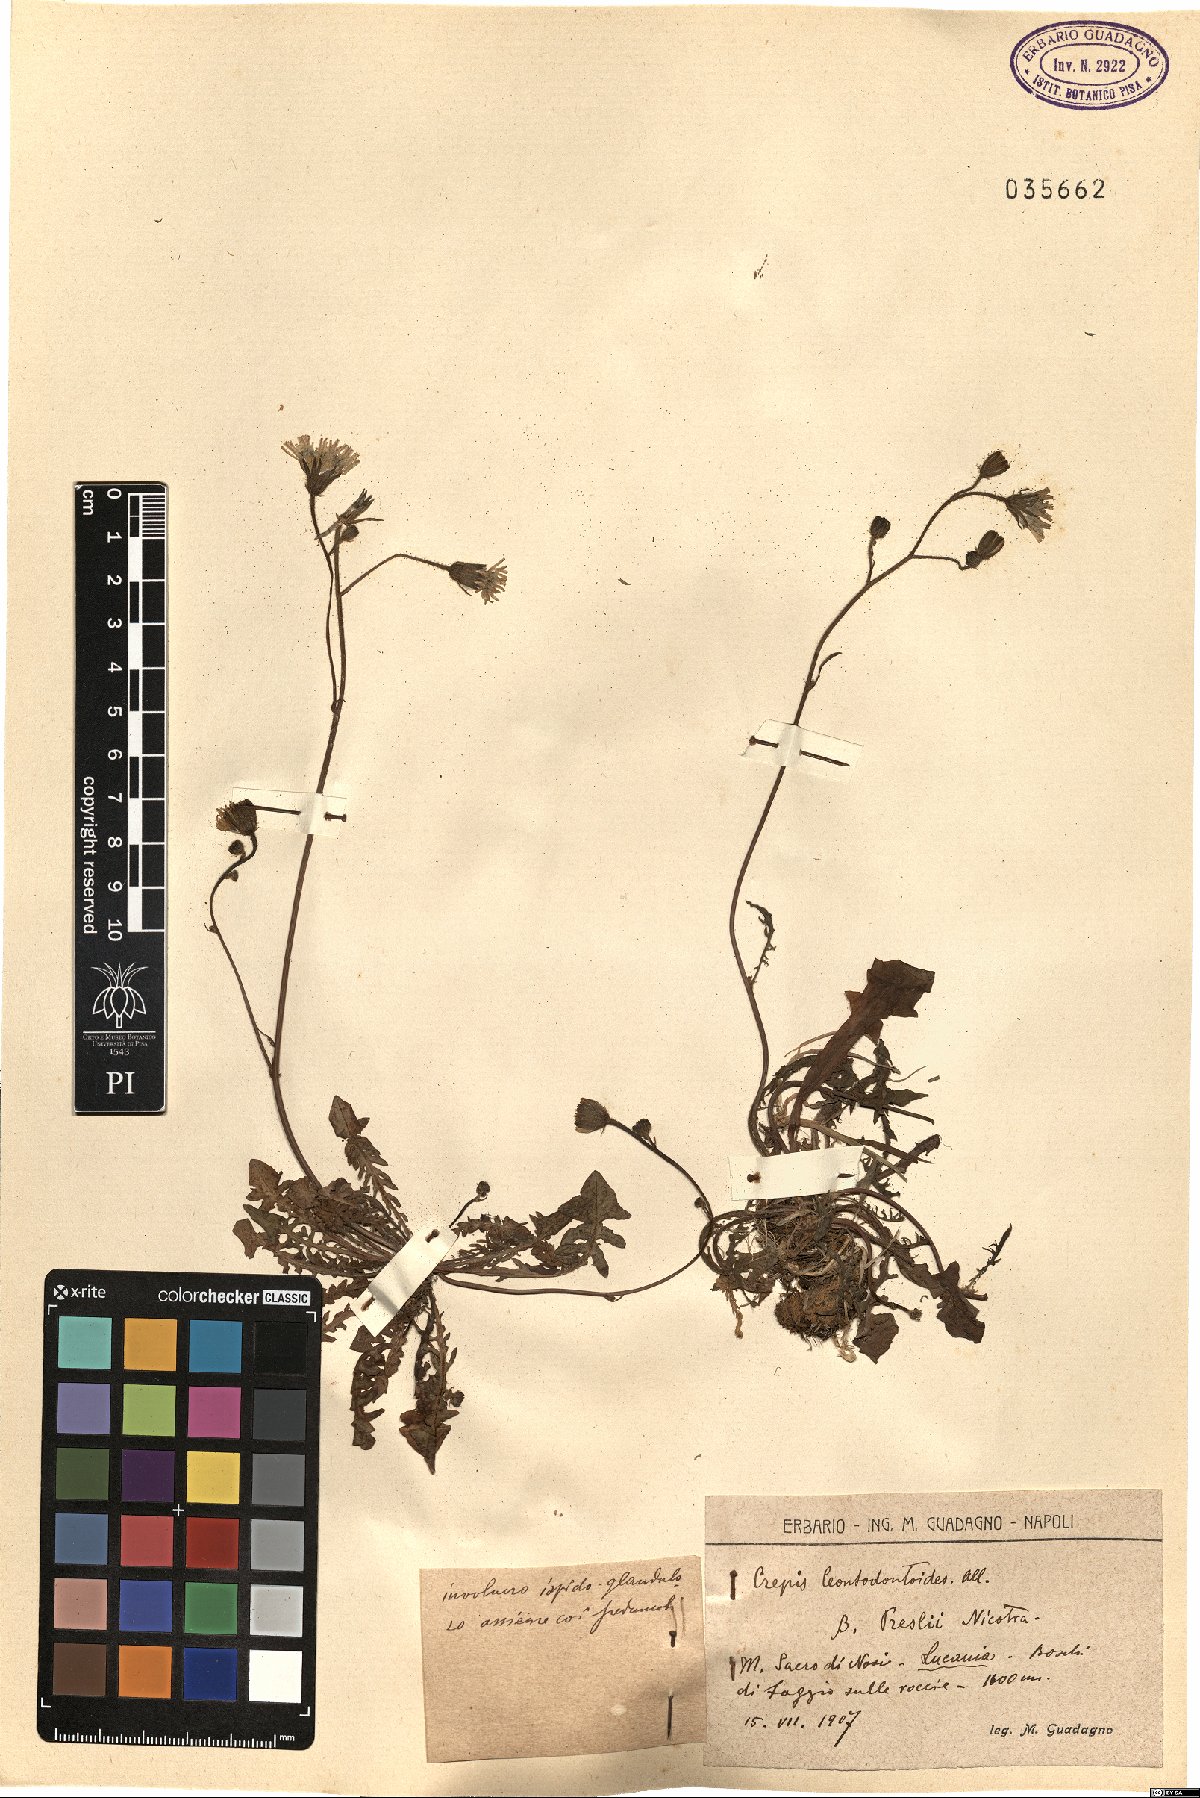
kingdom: Plantae
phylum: Tracheophyta
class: Magnoliopsida
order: Asterales
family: Asteraceae
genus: Crepis
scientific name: Crepis leontodontoides
